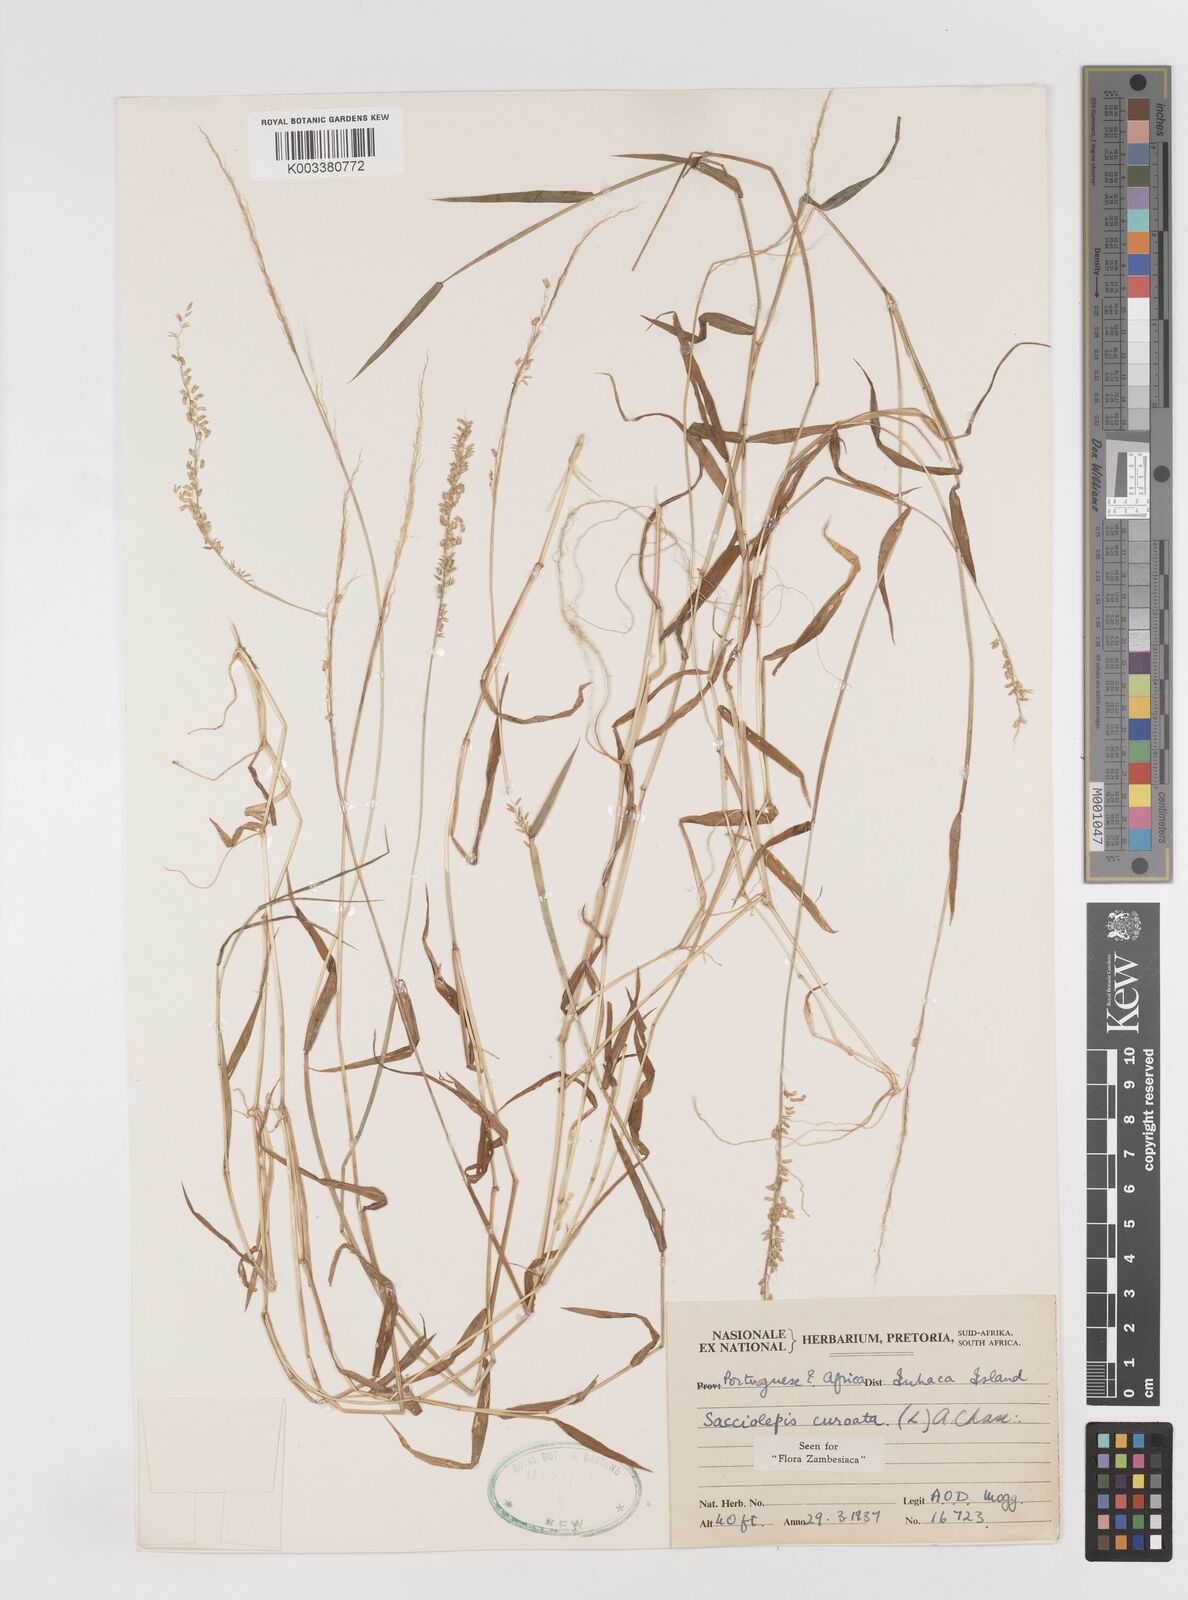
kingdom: Plantae
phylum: Tracheophyta
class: Liliopsida
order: Poales
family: Poaceae
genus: Sacciolepis
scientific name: Sacciolepis curvata
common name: Forest hood grass
